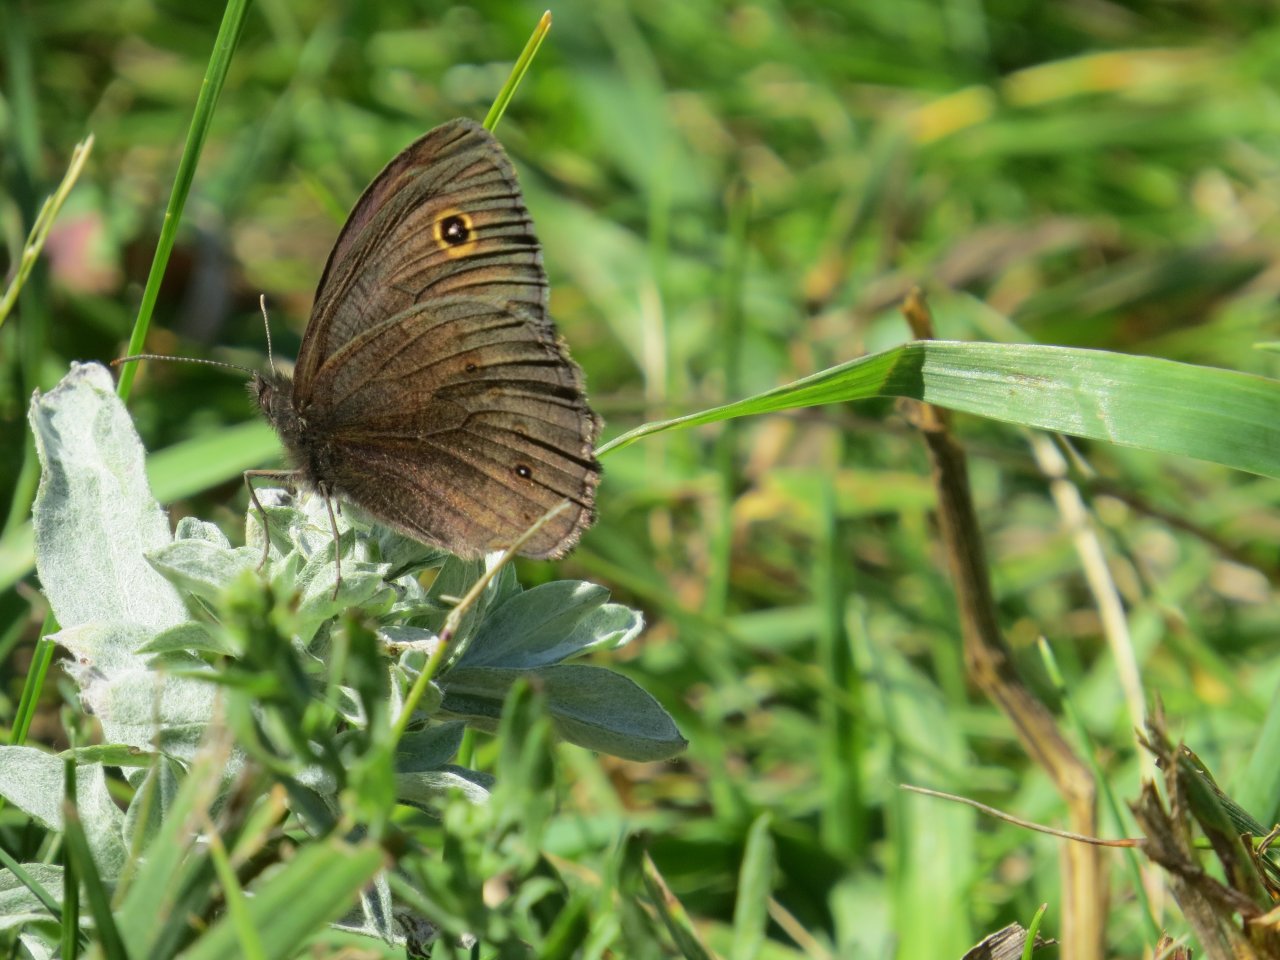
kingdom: Animalia
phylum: Arthropoda
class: Insecta
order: Lepidoptera
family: Nymphalidae
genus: Cercyonis
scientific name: Cercyonis pegala
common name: Common Wood-Nymph
